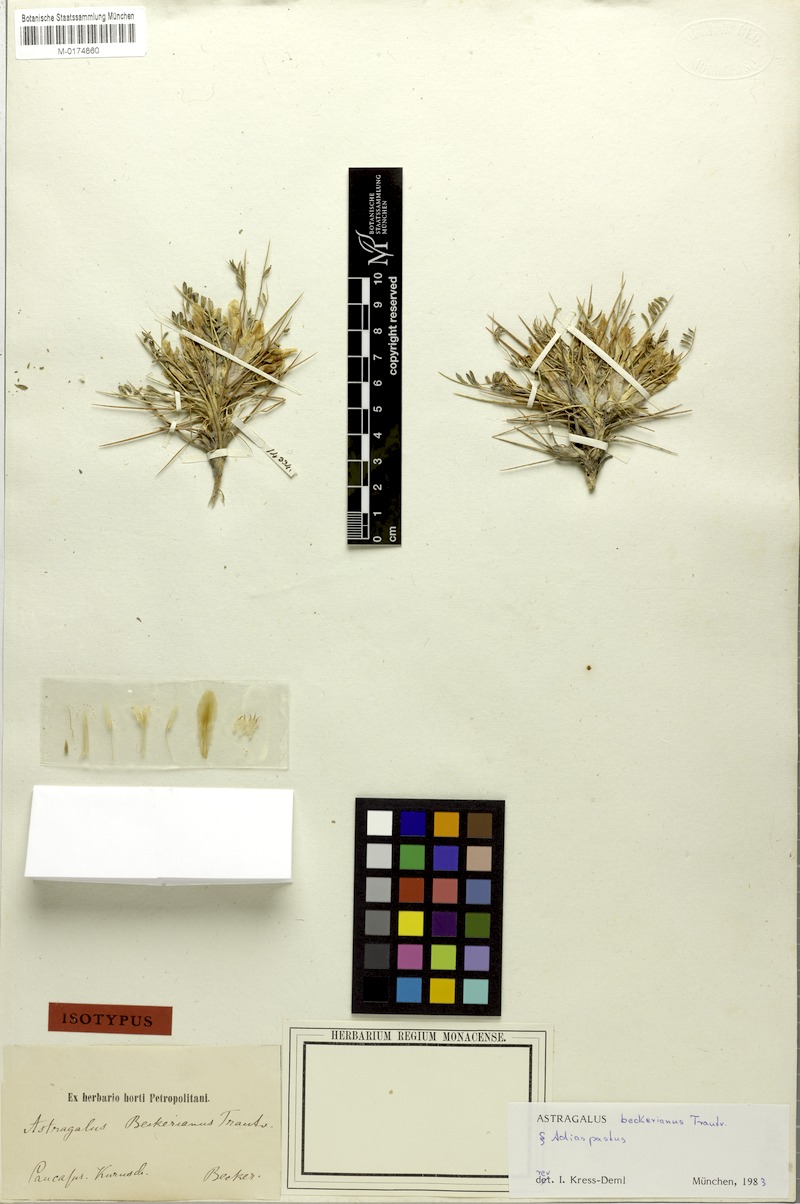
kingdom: Plantae
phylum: Tracheophyta
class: Magnoliopsida
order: Fabales
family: Fabaceae
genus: Astragalus
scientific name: Astragalus beckerianus
